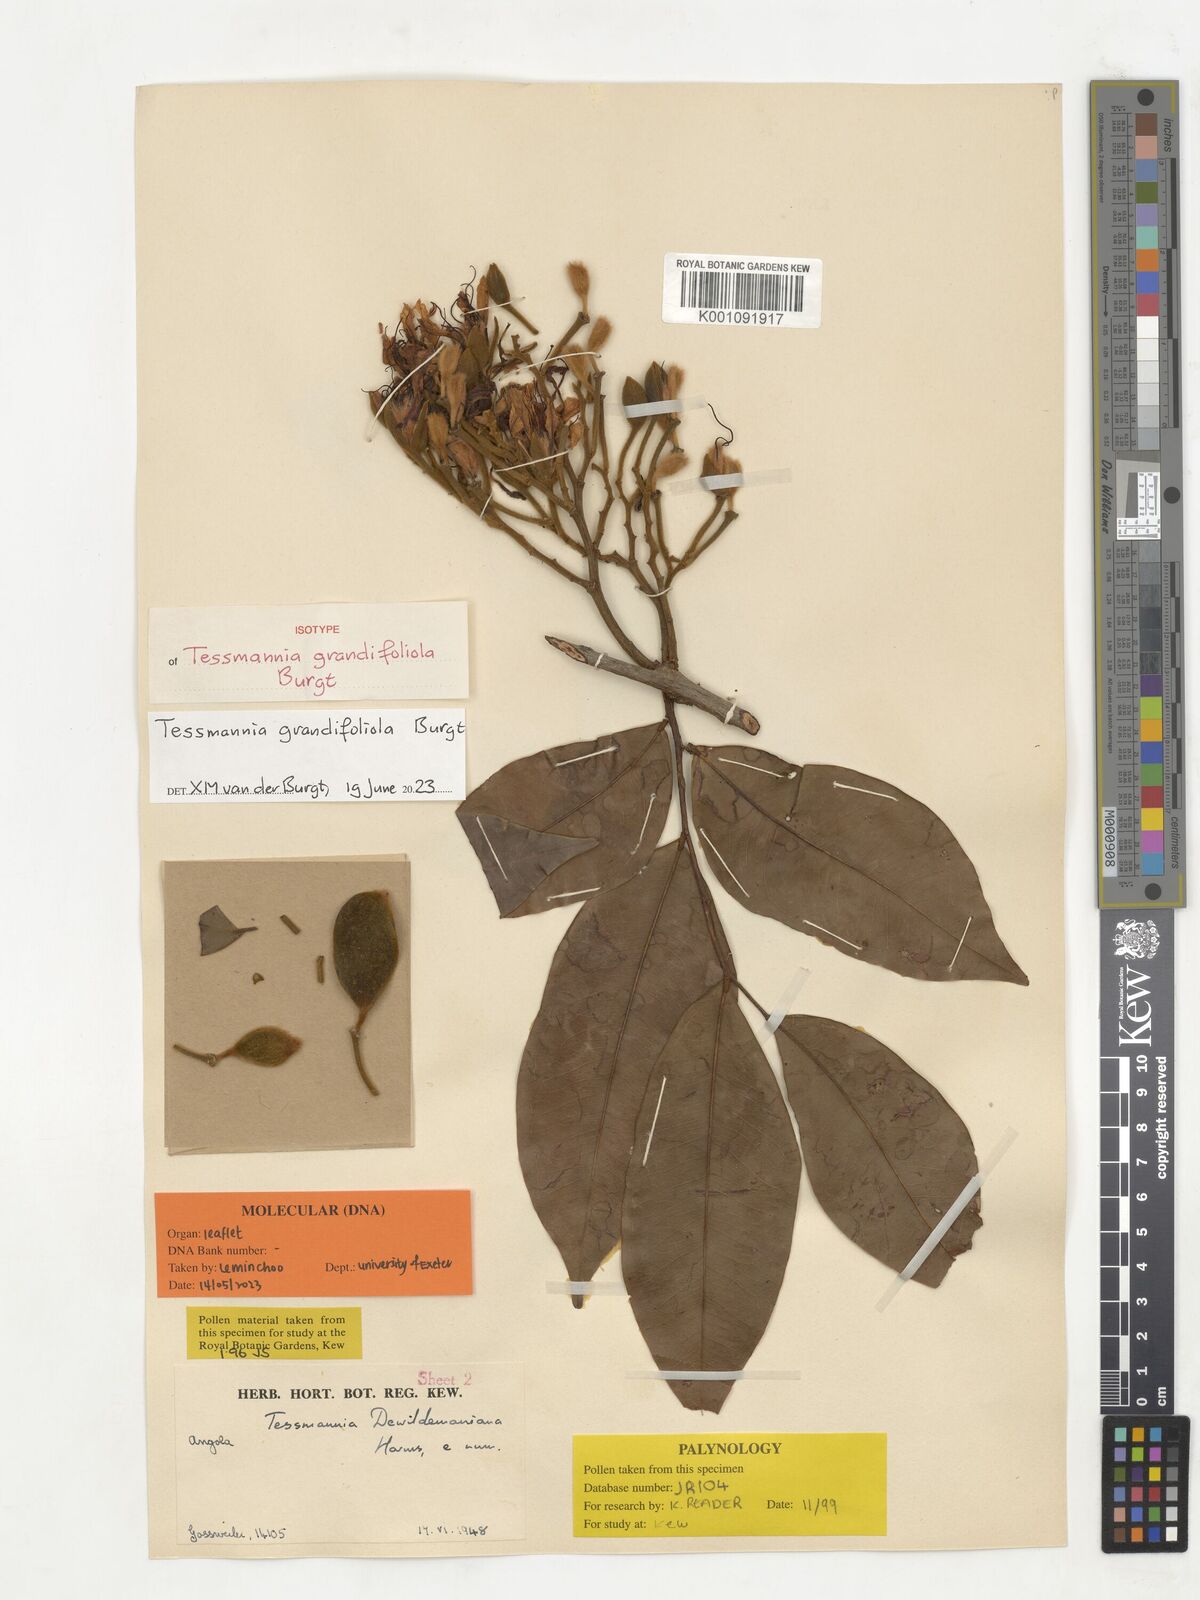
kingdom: Plantae
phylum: Tracheophyta
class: Magnoliopsida
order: Fabales
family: Fabaceae
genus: Tessmannia
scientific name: Tessmannia dewildemaniana
